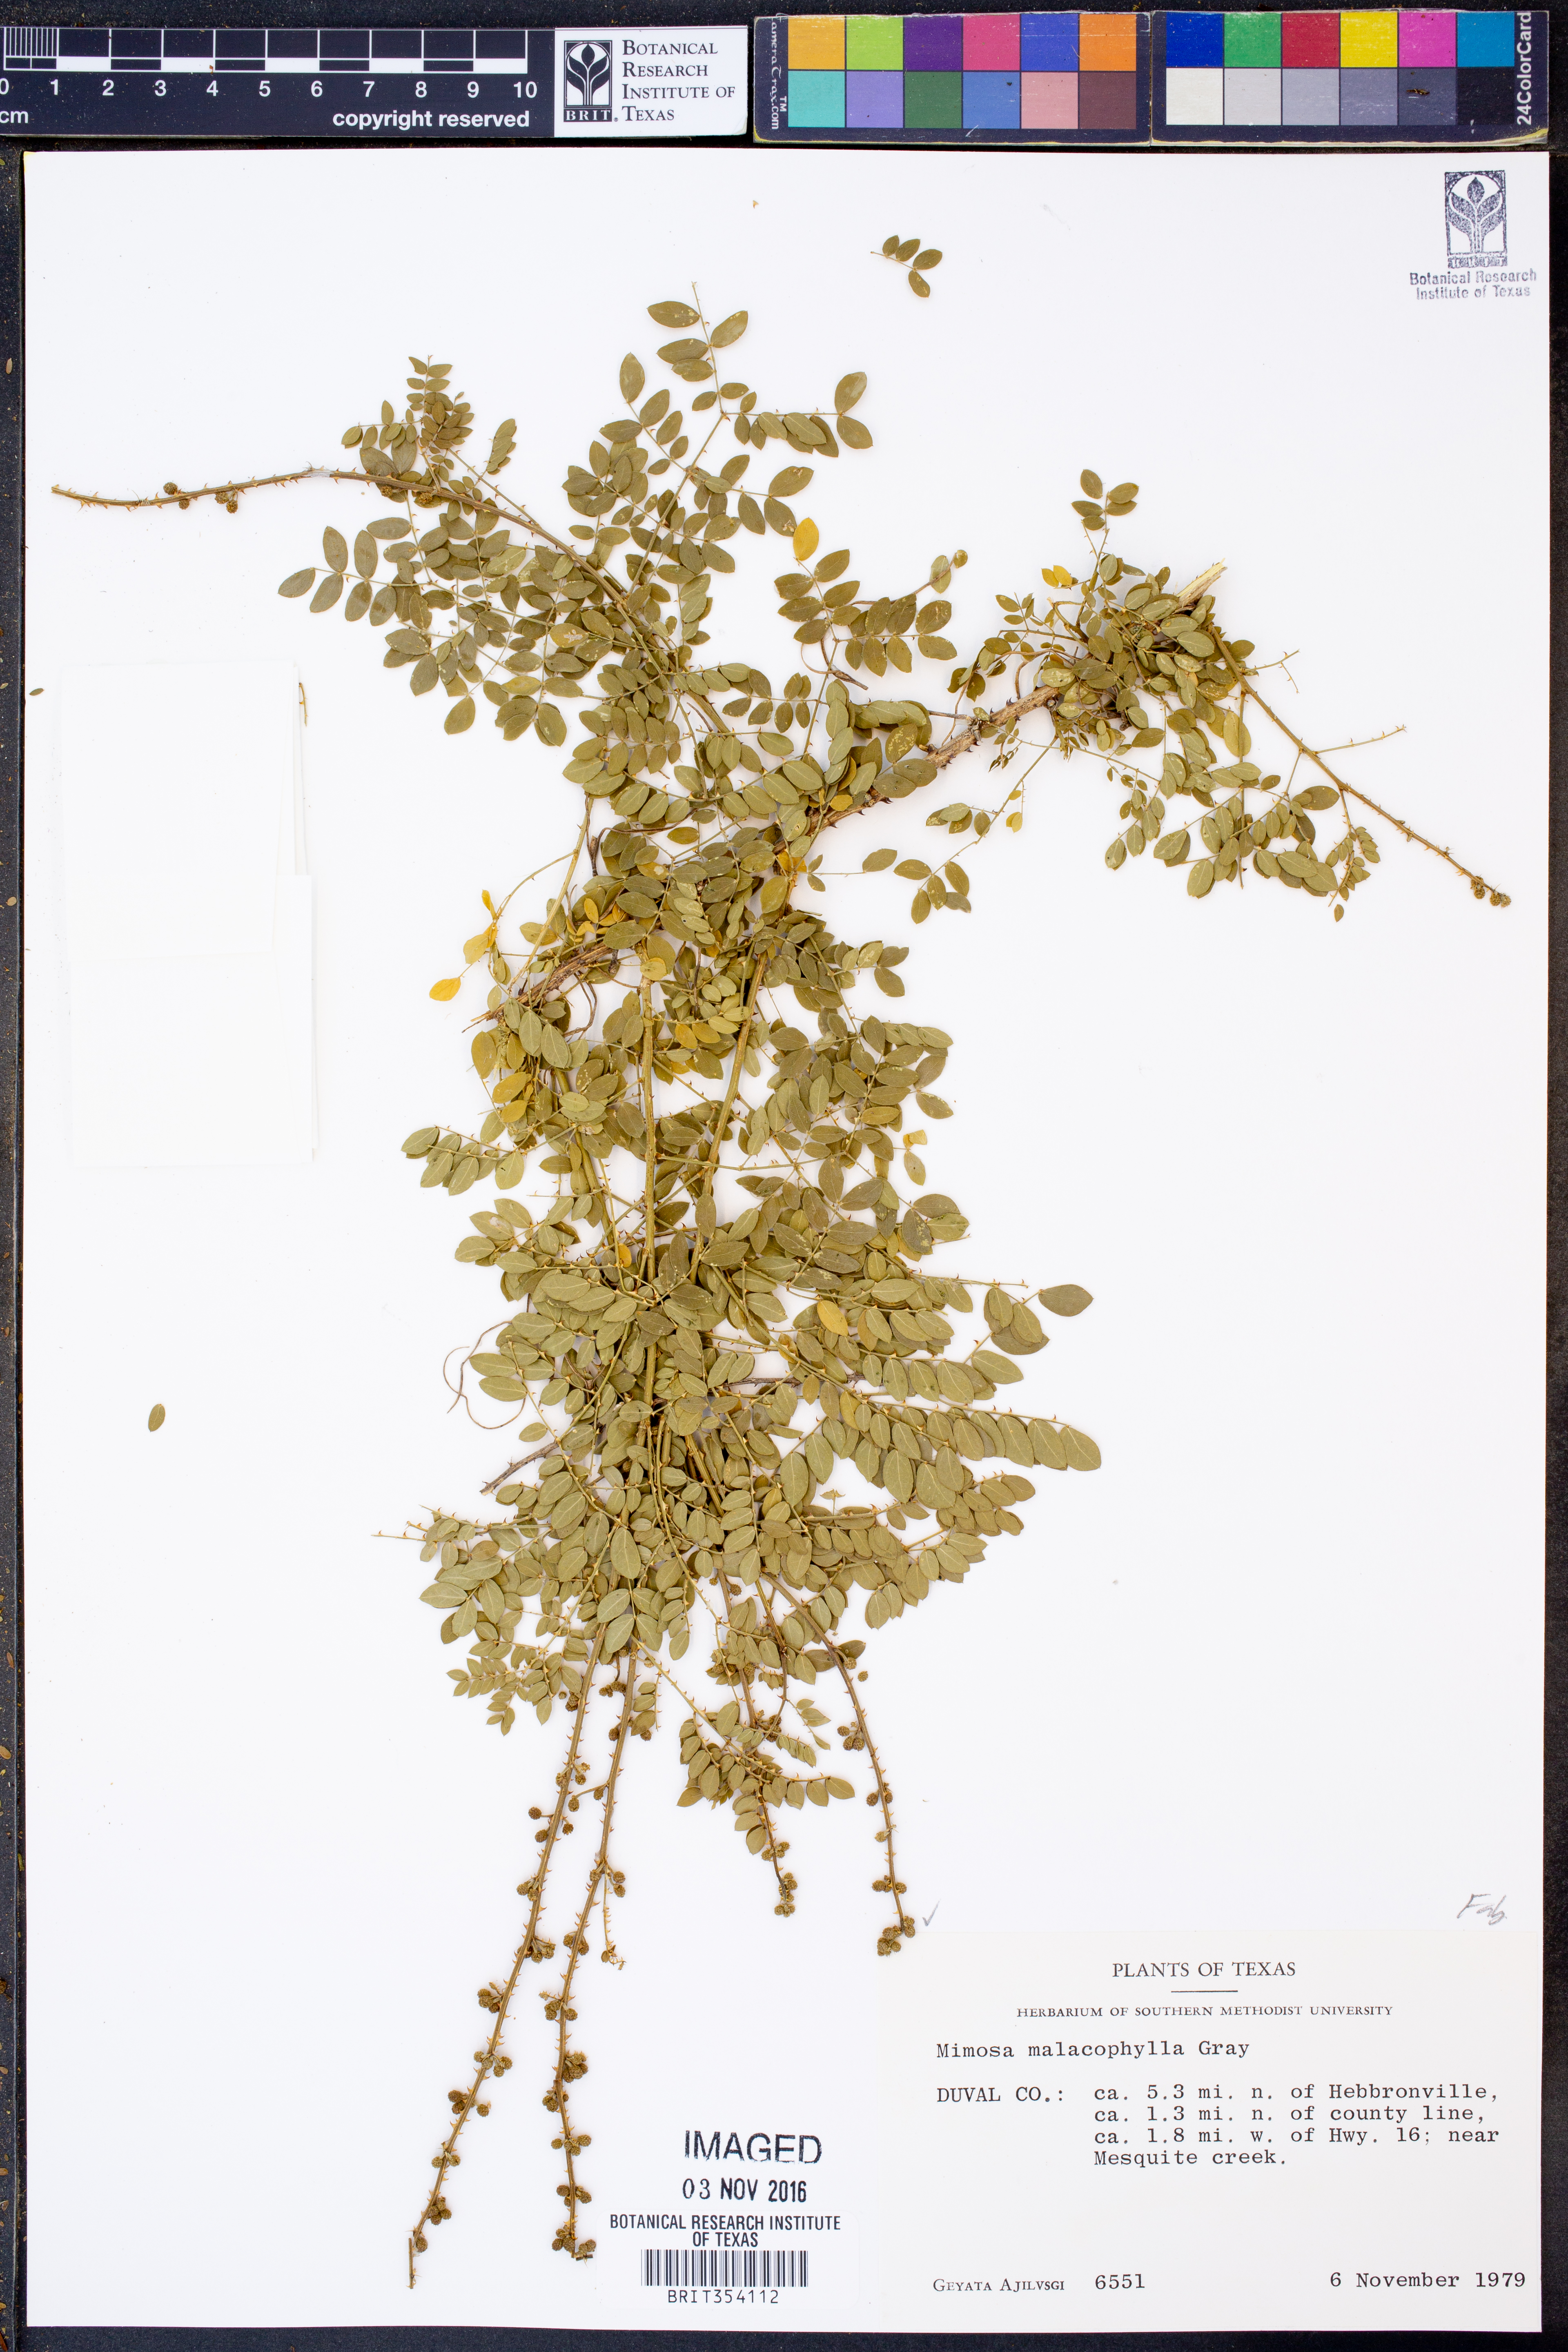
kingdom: Plantae
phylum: Tracheophyta
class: Magnoliopsida
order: Fabales
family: Fabaceae
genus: Mimosa
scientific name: Mimosa malacophylla
